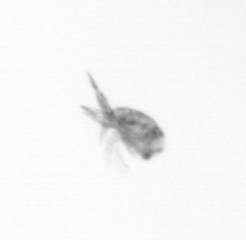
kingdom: Animalia
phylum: Arthropoda
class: Copepoda
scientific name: Copepoda
